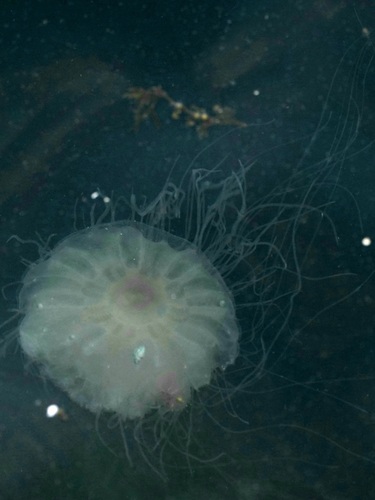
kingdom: Animalia
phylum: Cnidaria
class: Scyphozoa
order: Semaeostomeae
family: Cyaneidae
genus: Cyanea
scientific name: Cyanea nozakii
